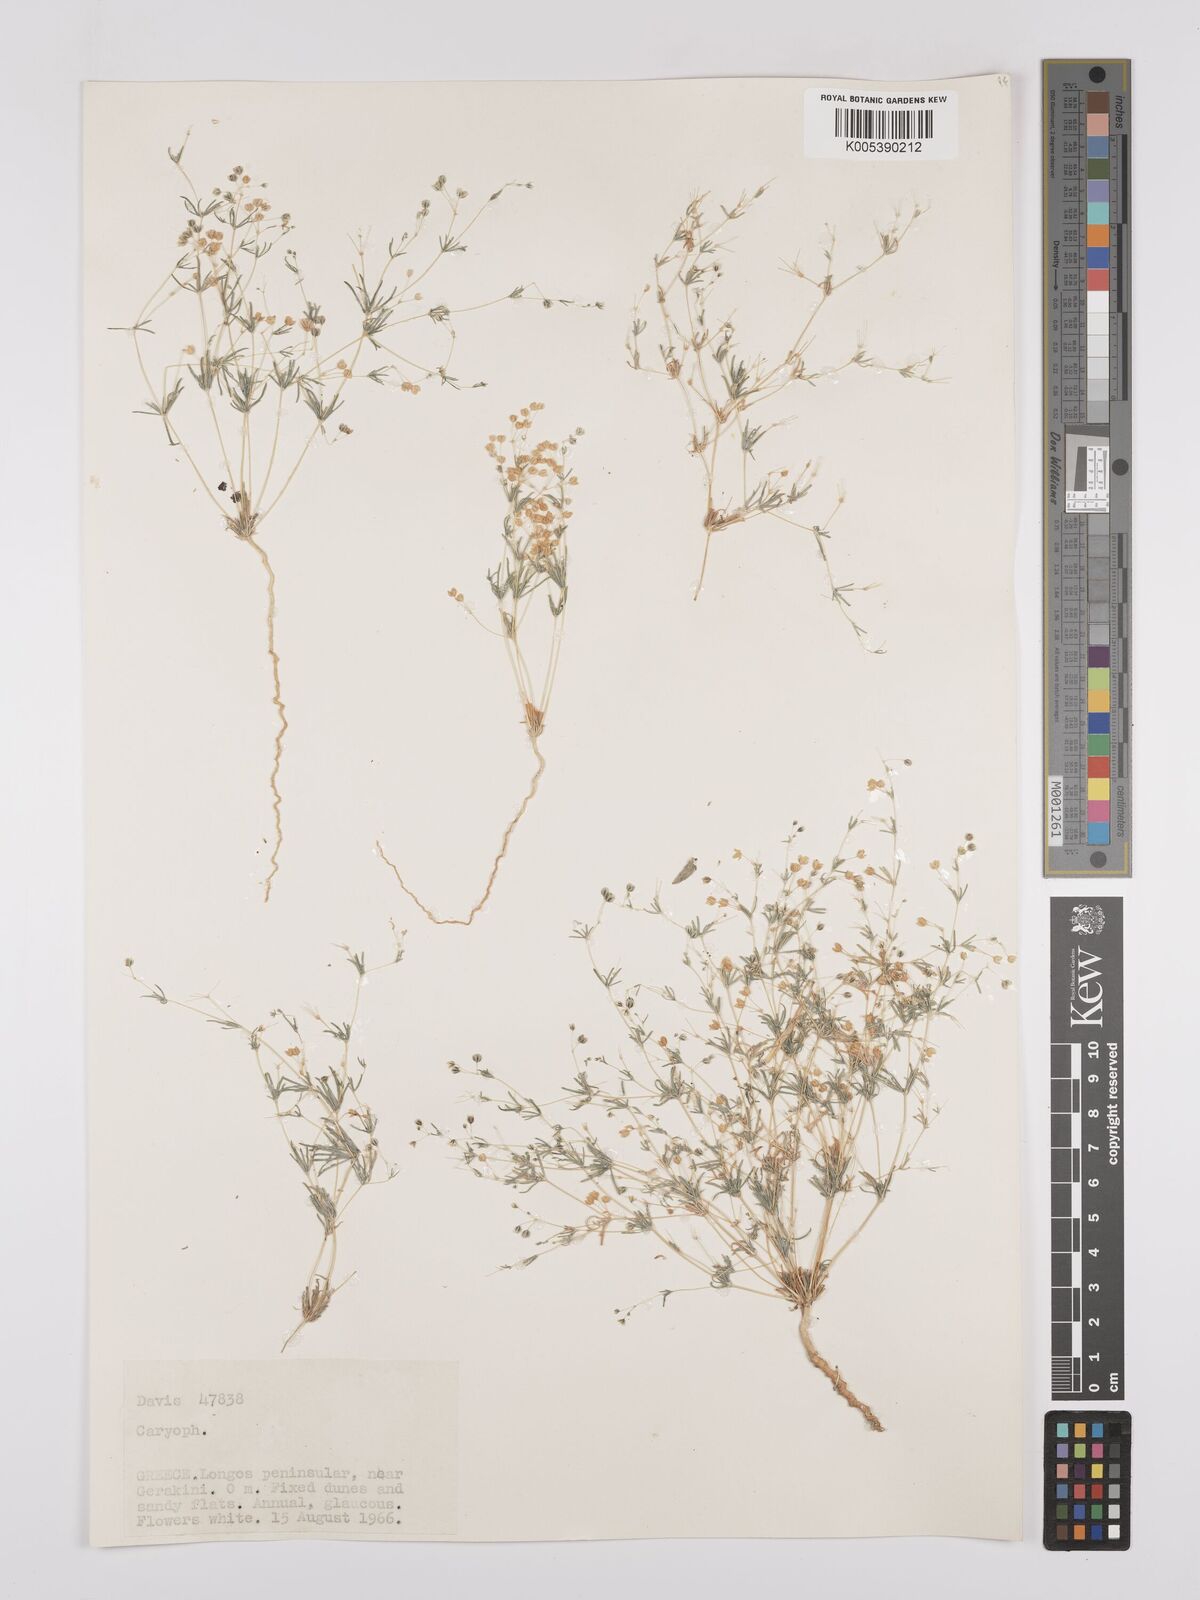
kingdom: Plantae
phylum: Tracheophyta
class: Magnoliopsida
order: Caryophyllales
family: Caryophyllaceae
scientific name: Caryophyllaceae
